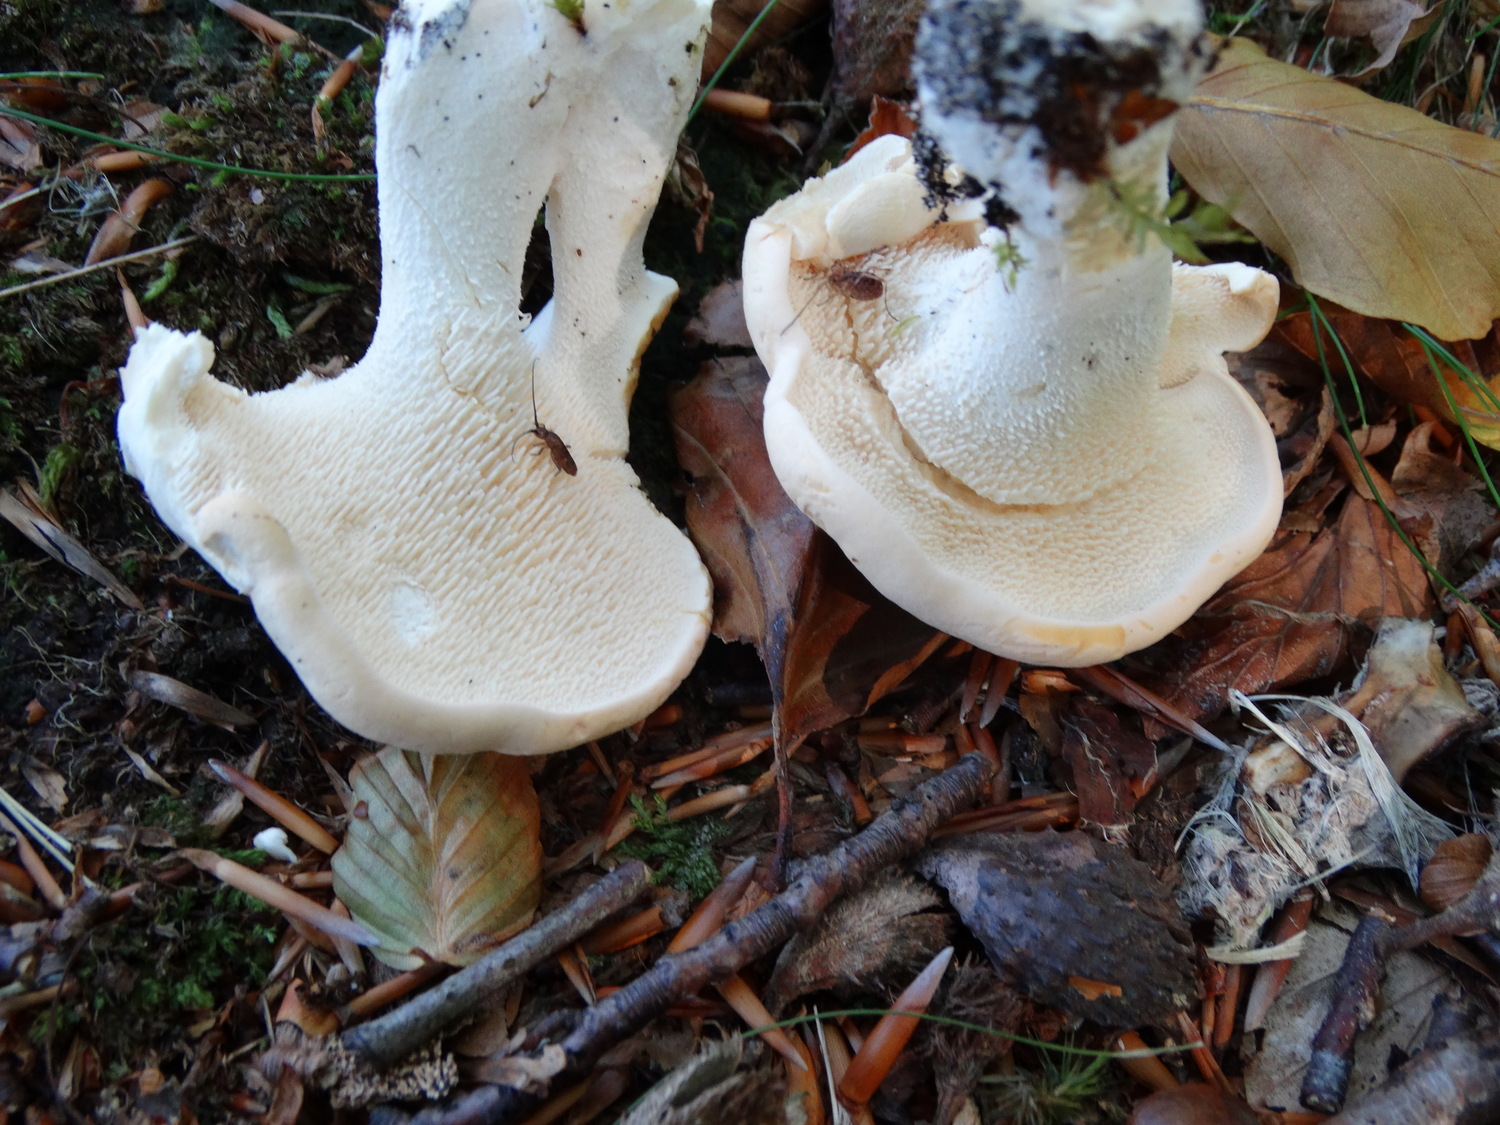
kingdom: Fungi
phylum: Basidiomycota
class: Agaricomycetes
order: Cantharellales
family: Hydnaceae
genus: Hydnum
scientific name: Hydnum repandum
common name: almindelig pigsvamp
